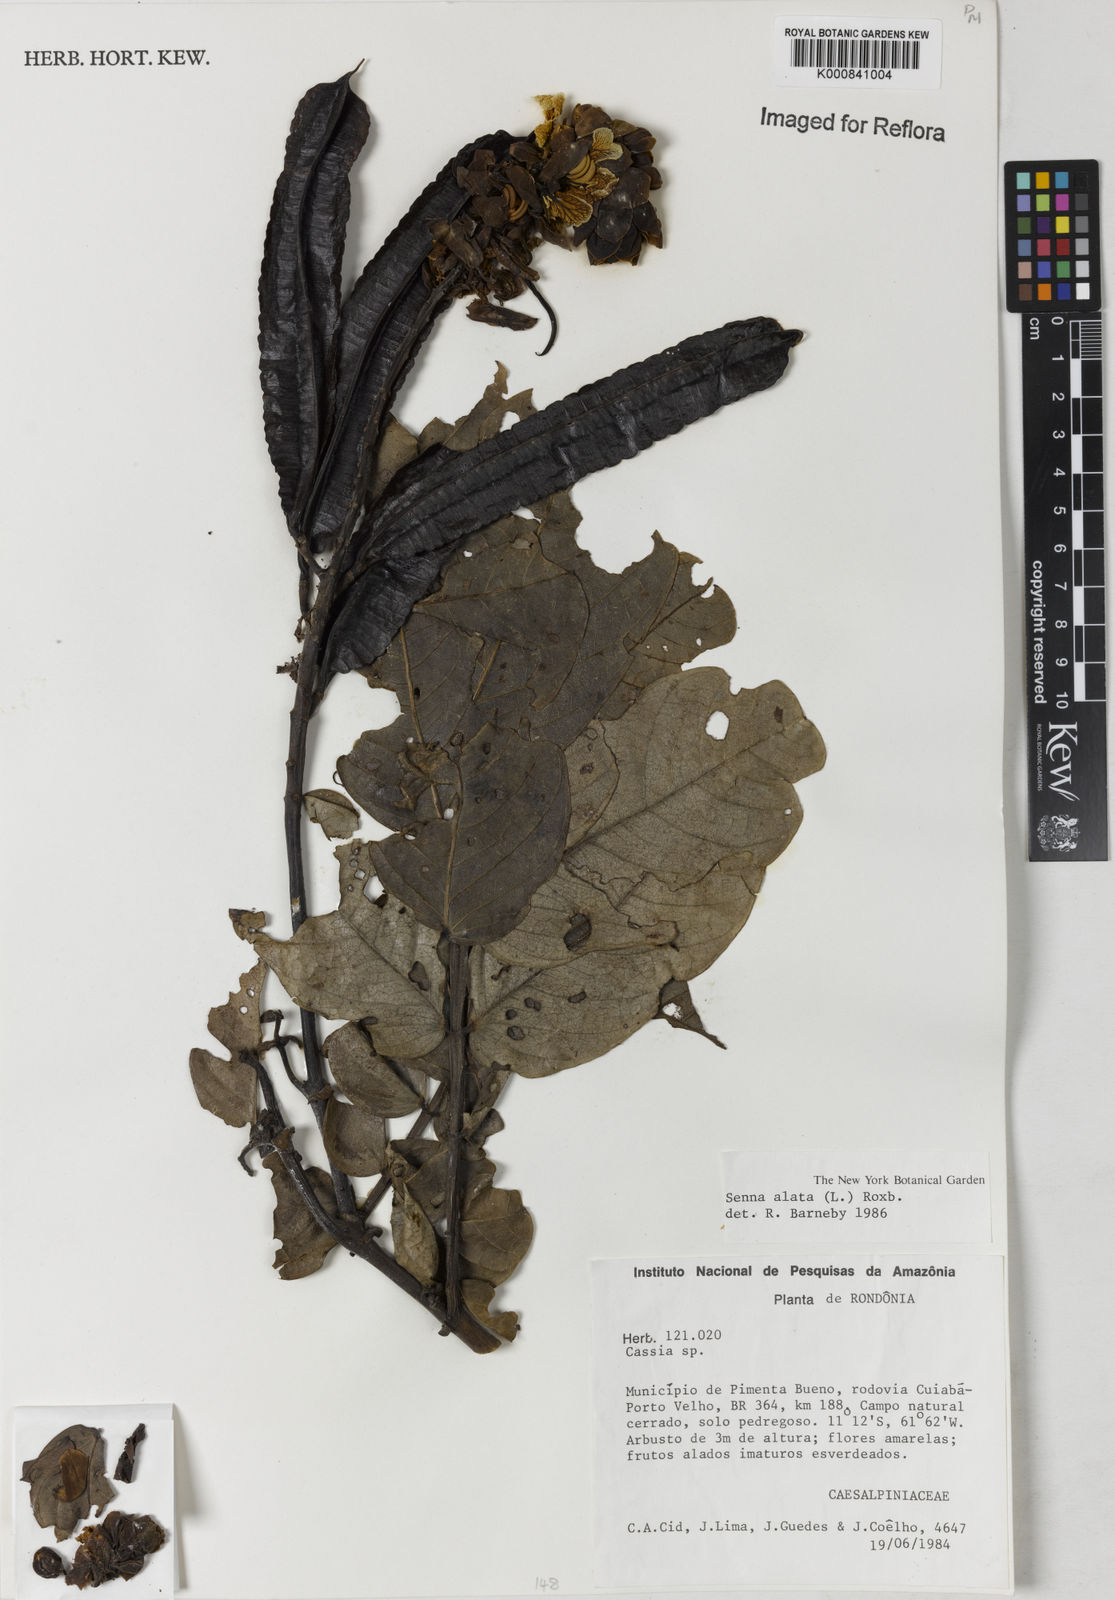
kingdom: Plantae
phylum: Tracheophyta
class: Magnoliopsida
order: Fabales
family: Fabaceae
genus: Senna
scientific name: Senna alata
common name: Emperor's candlesticks
